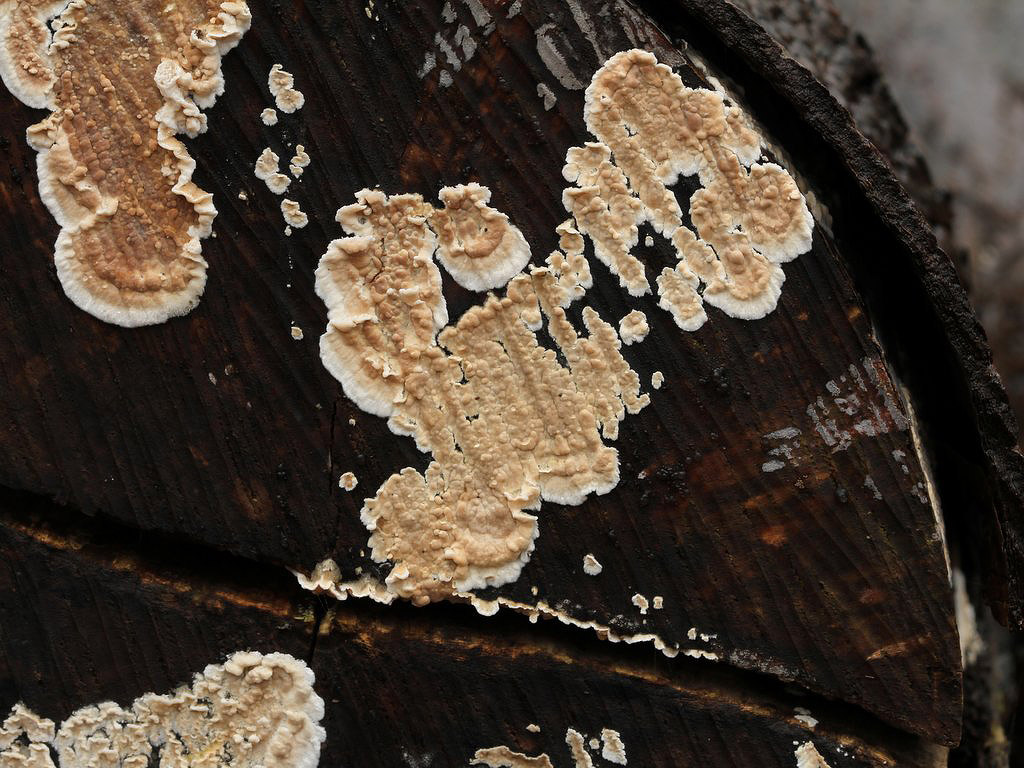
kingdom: Fungi
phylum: Basidiomycota
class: Agaricomycetes
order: Agaricales
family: Physalacriaceae
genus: Cylindrobasidium
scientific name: Cylindrobasidium evolvens
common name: sprækkehinde
